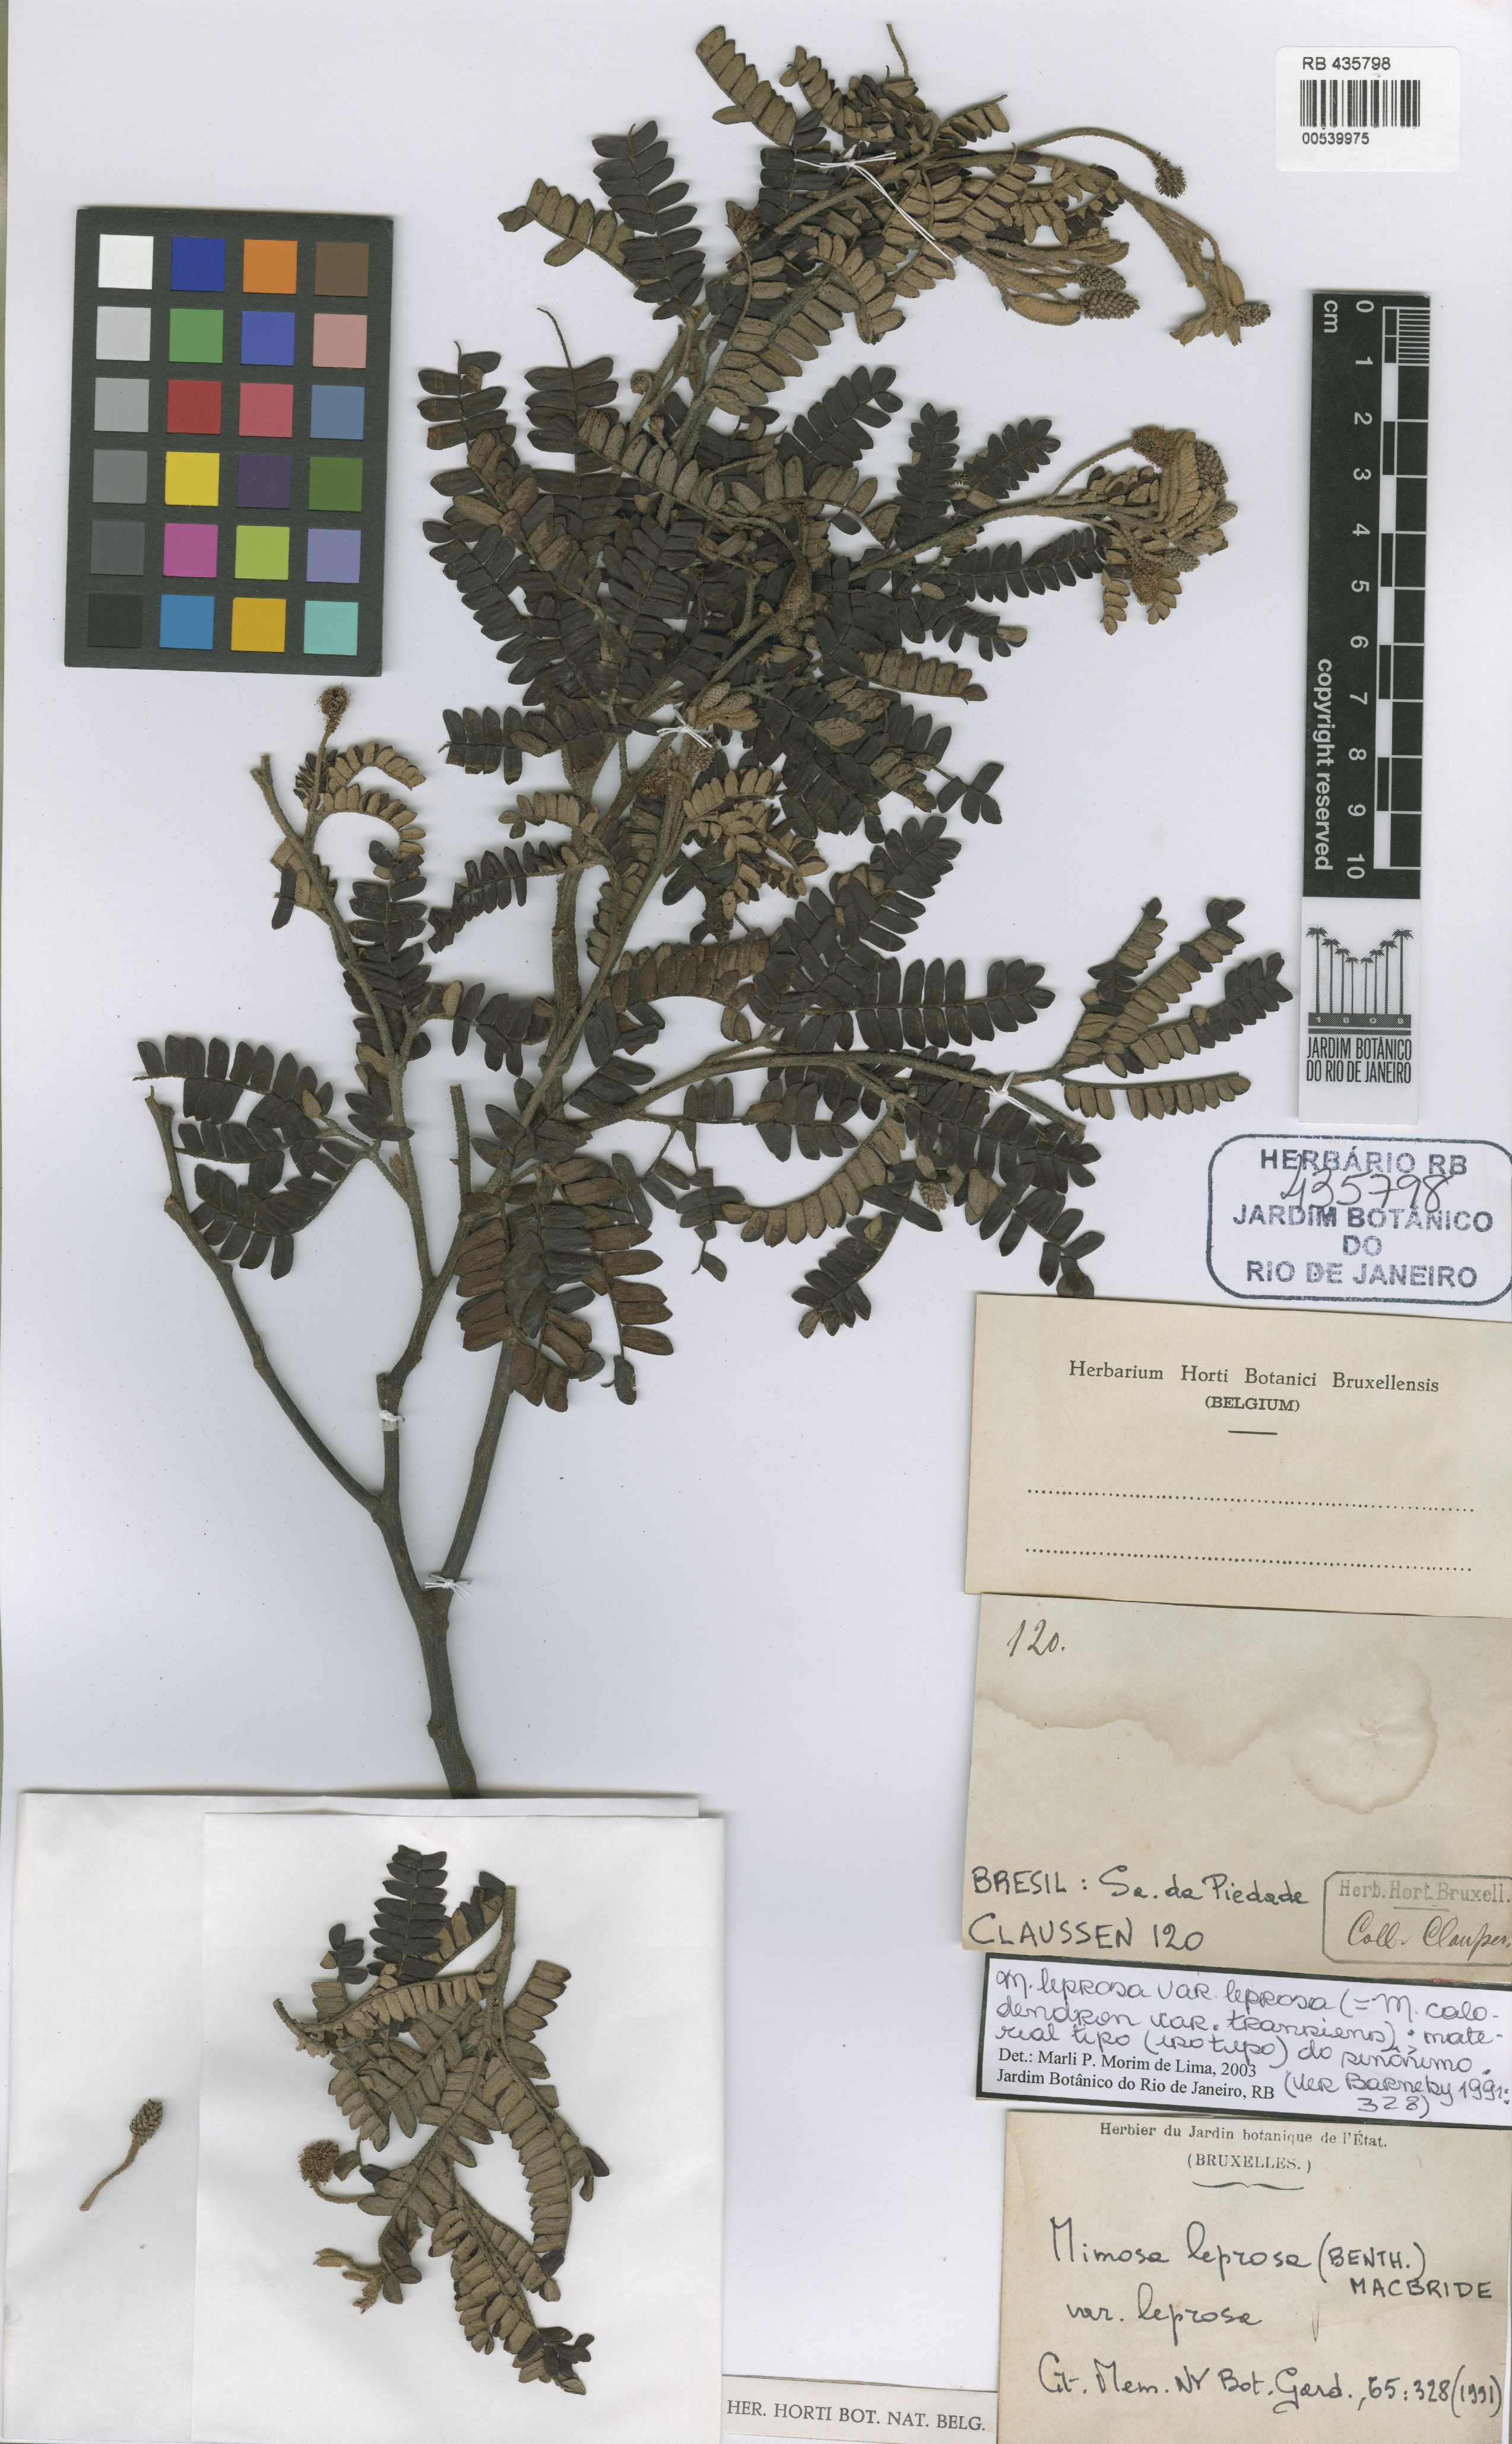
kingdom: Plantae
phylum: Tracheophyta
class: Magnoliopsida
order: Fabales
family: Fabaceae
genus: Mimosa
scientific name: Mimosa leprosa
